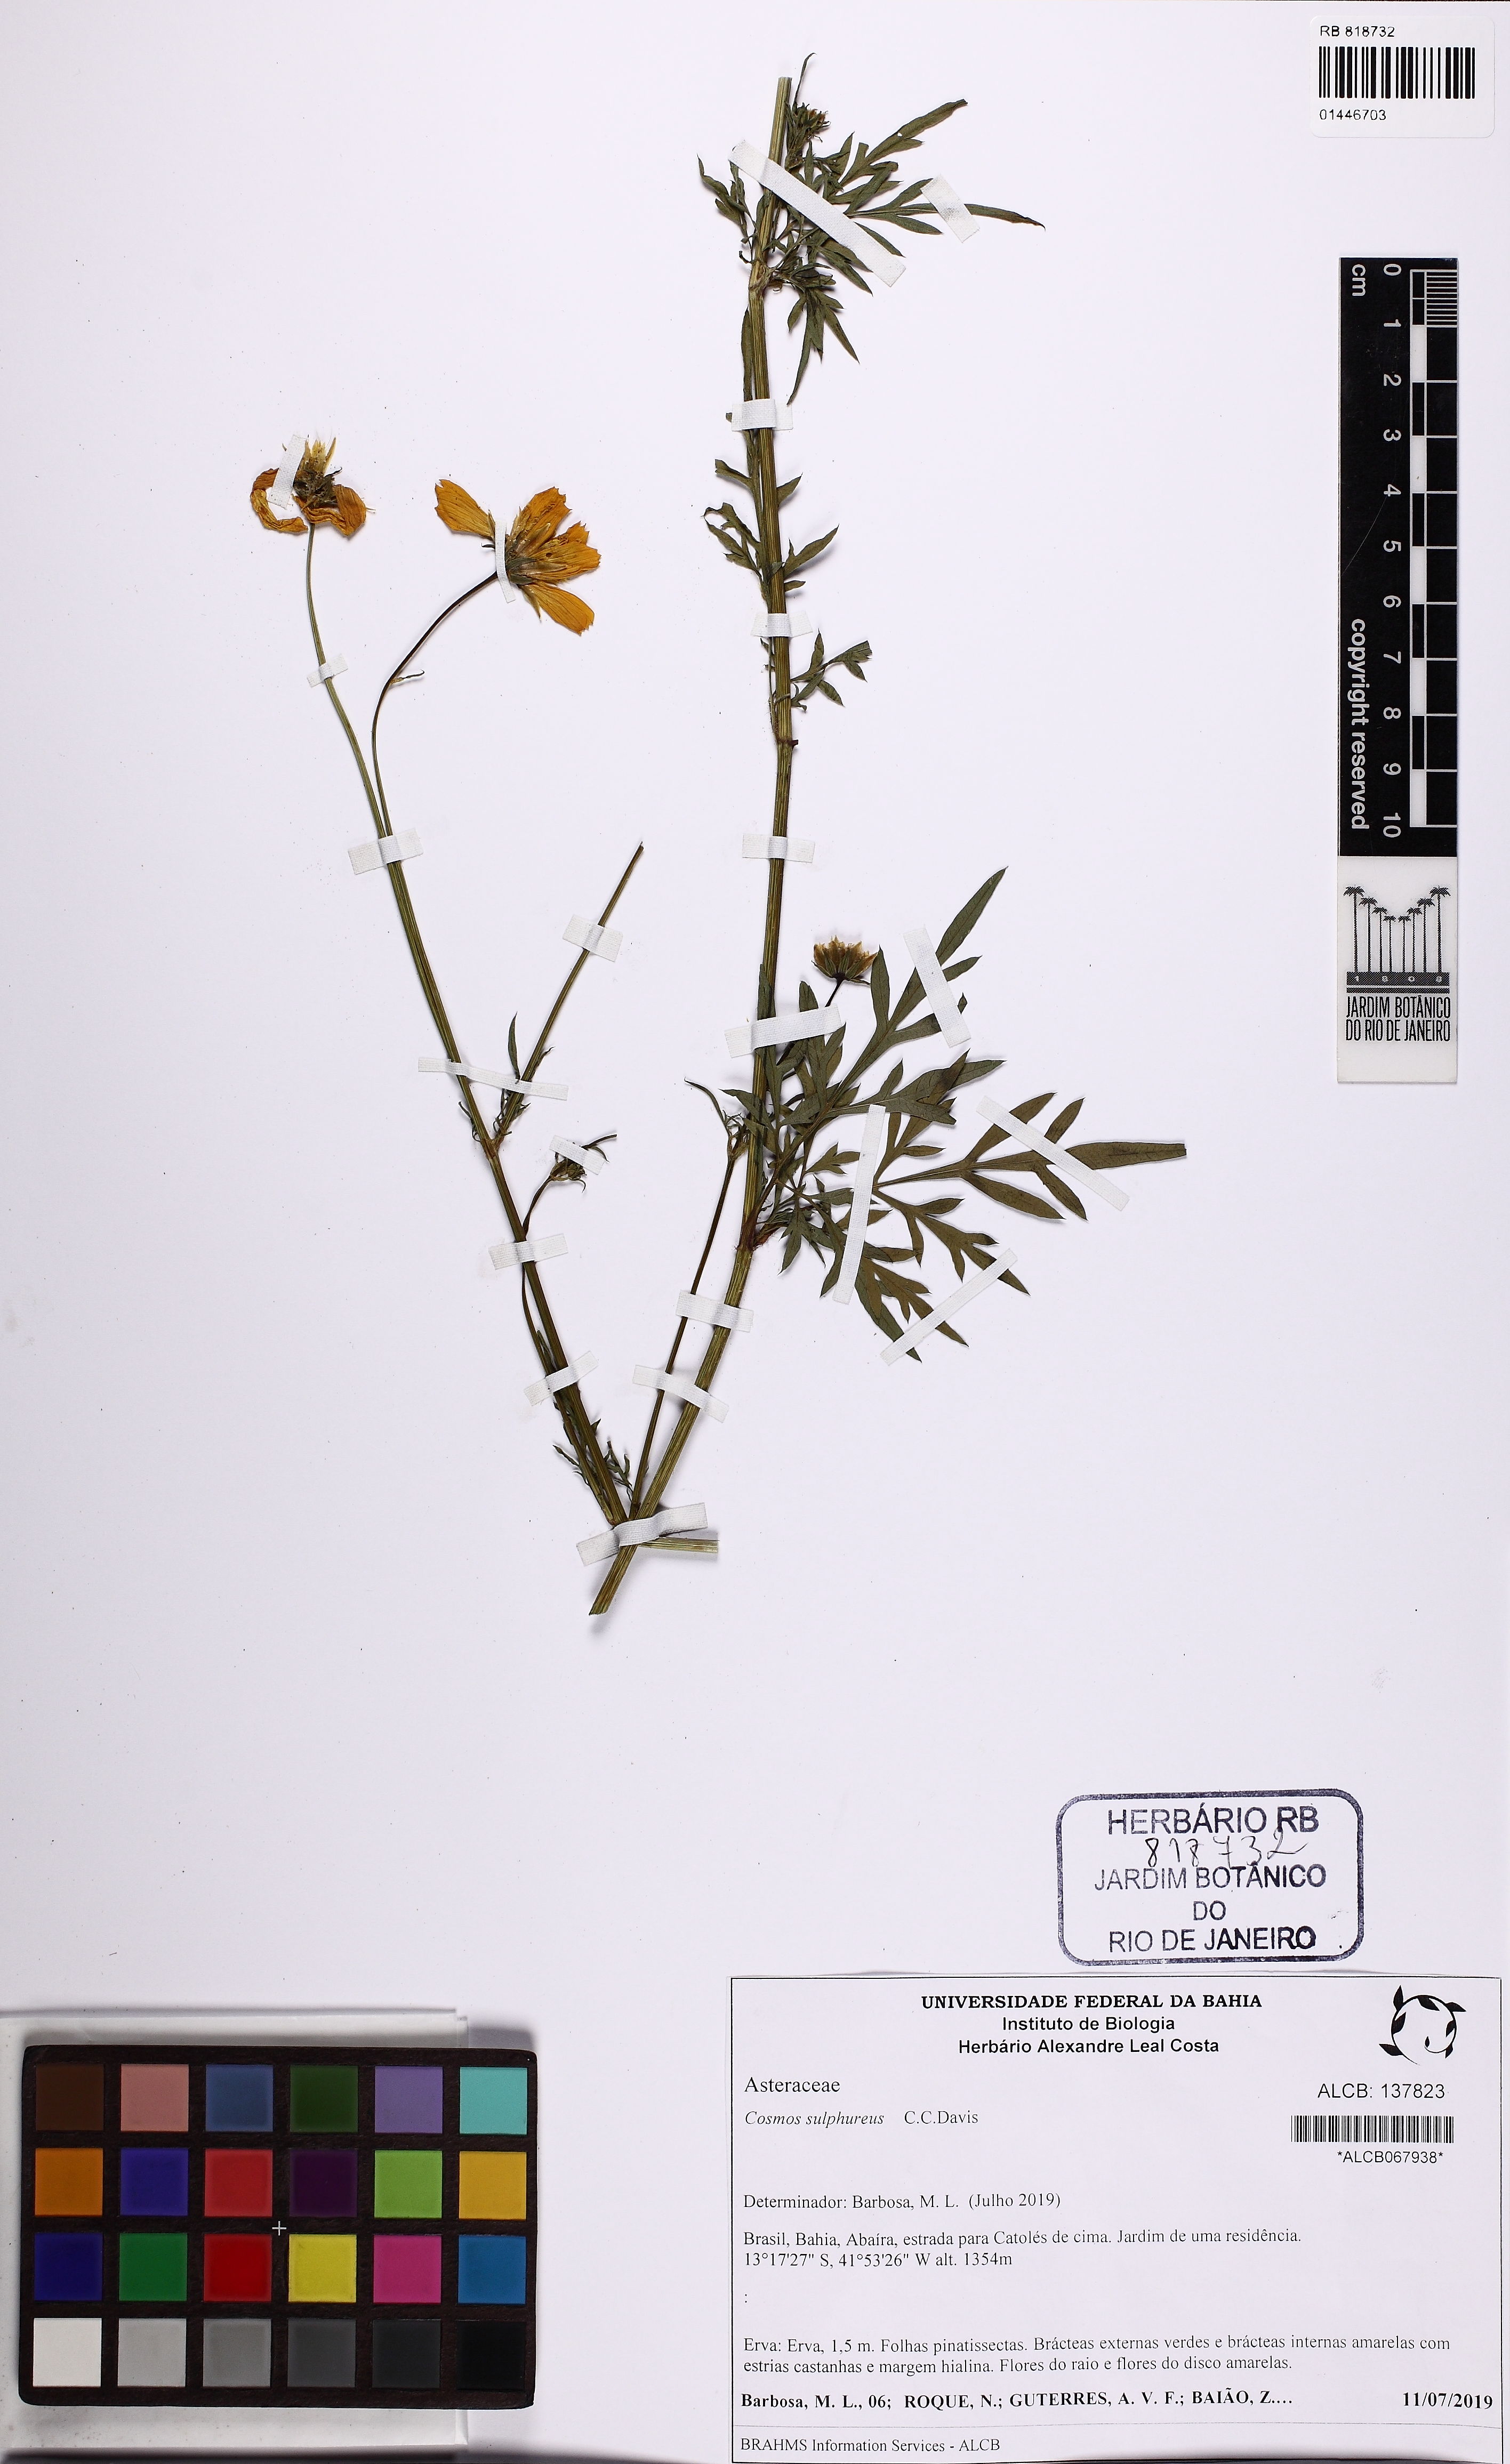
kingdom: Plantae
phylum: Tracheophyta
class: Magnoliopsida
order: Asterales
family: Asteraceae
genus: Cosmos
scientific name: Cosmos sulphureus
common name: Sulphur cosmos
